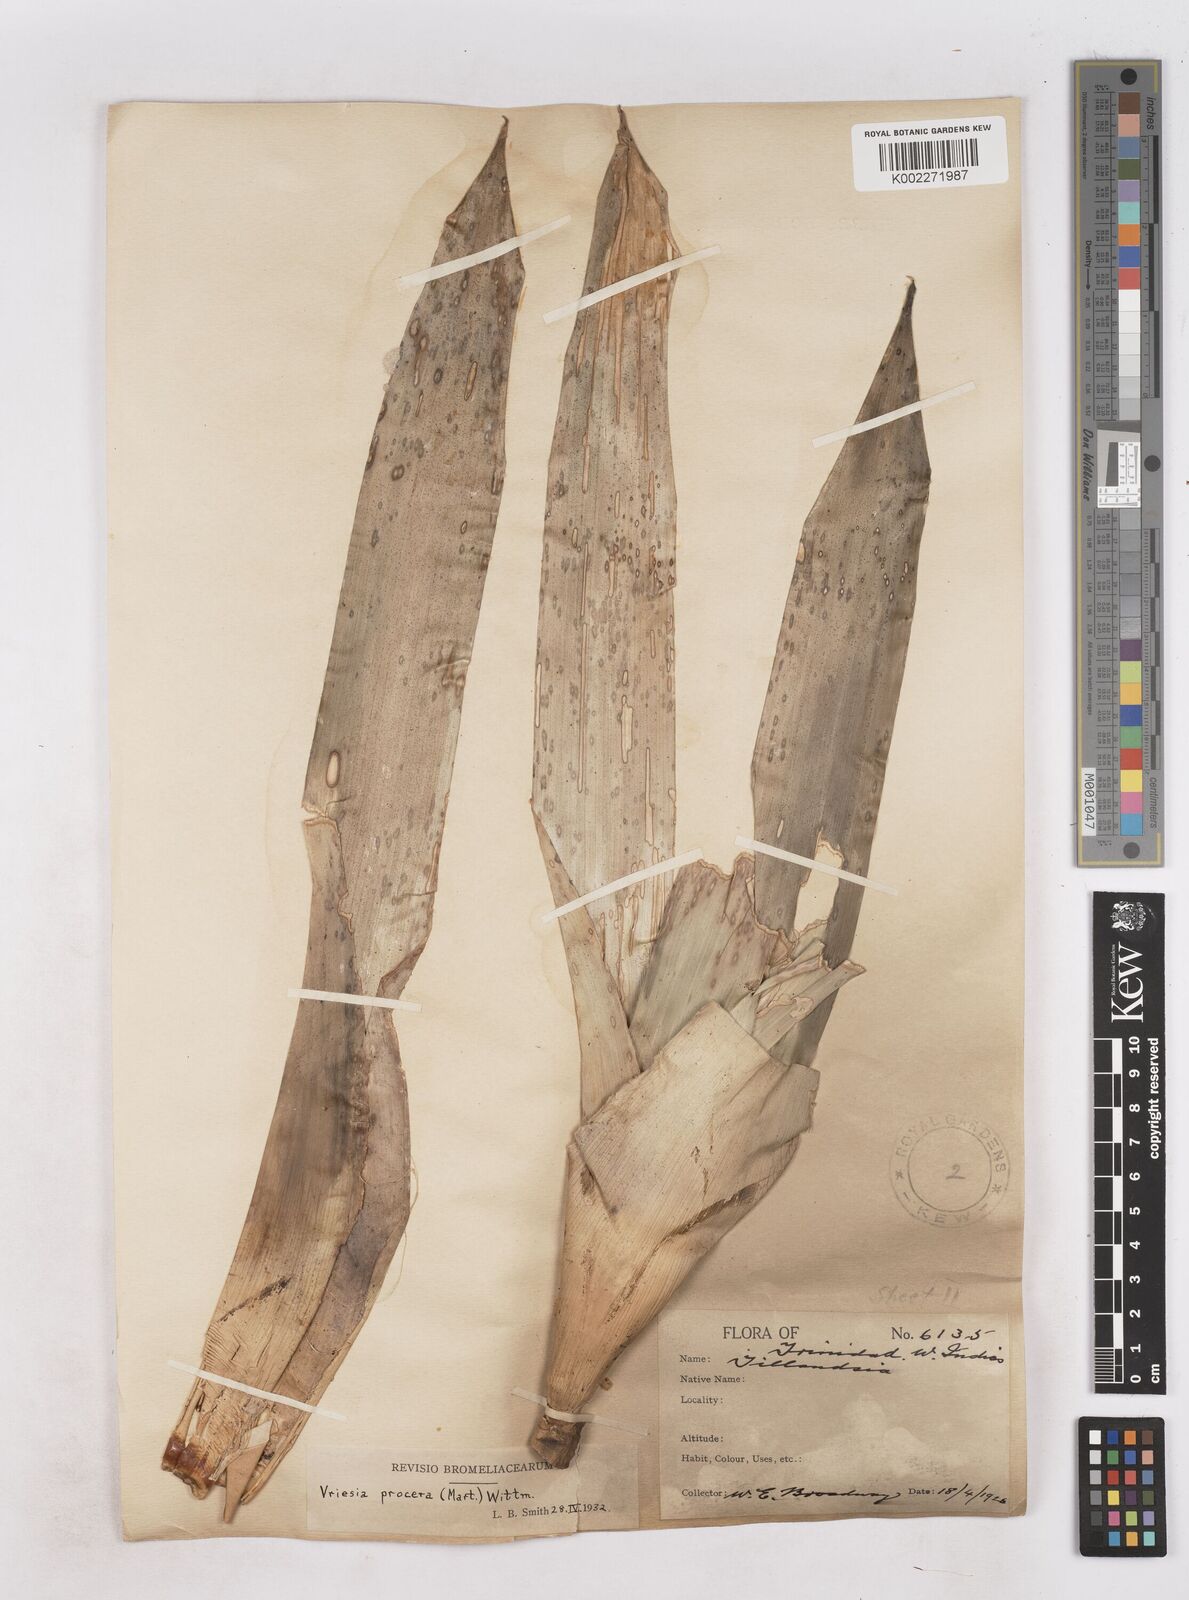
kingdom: Plantae
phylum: Tracheophyta
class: Liliopsida
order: Poales
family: Bromeliaceae
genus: Vriesea
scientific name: Vriesea procera
